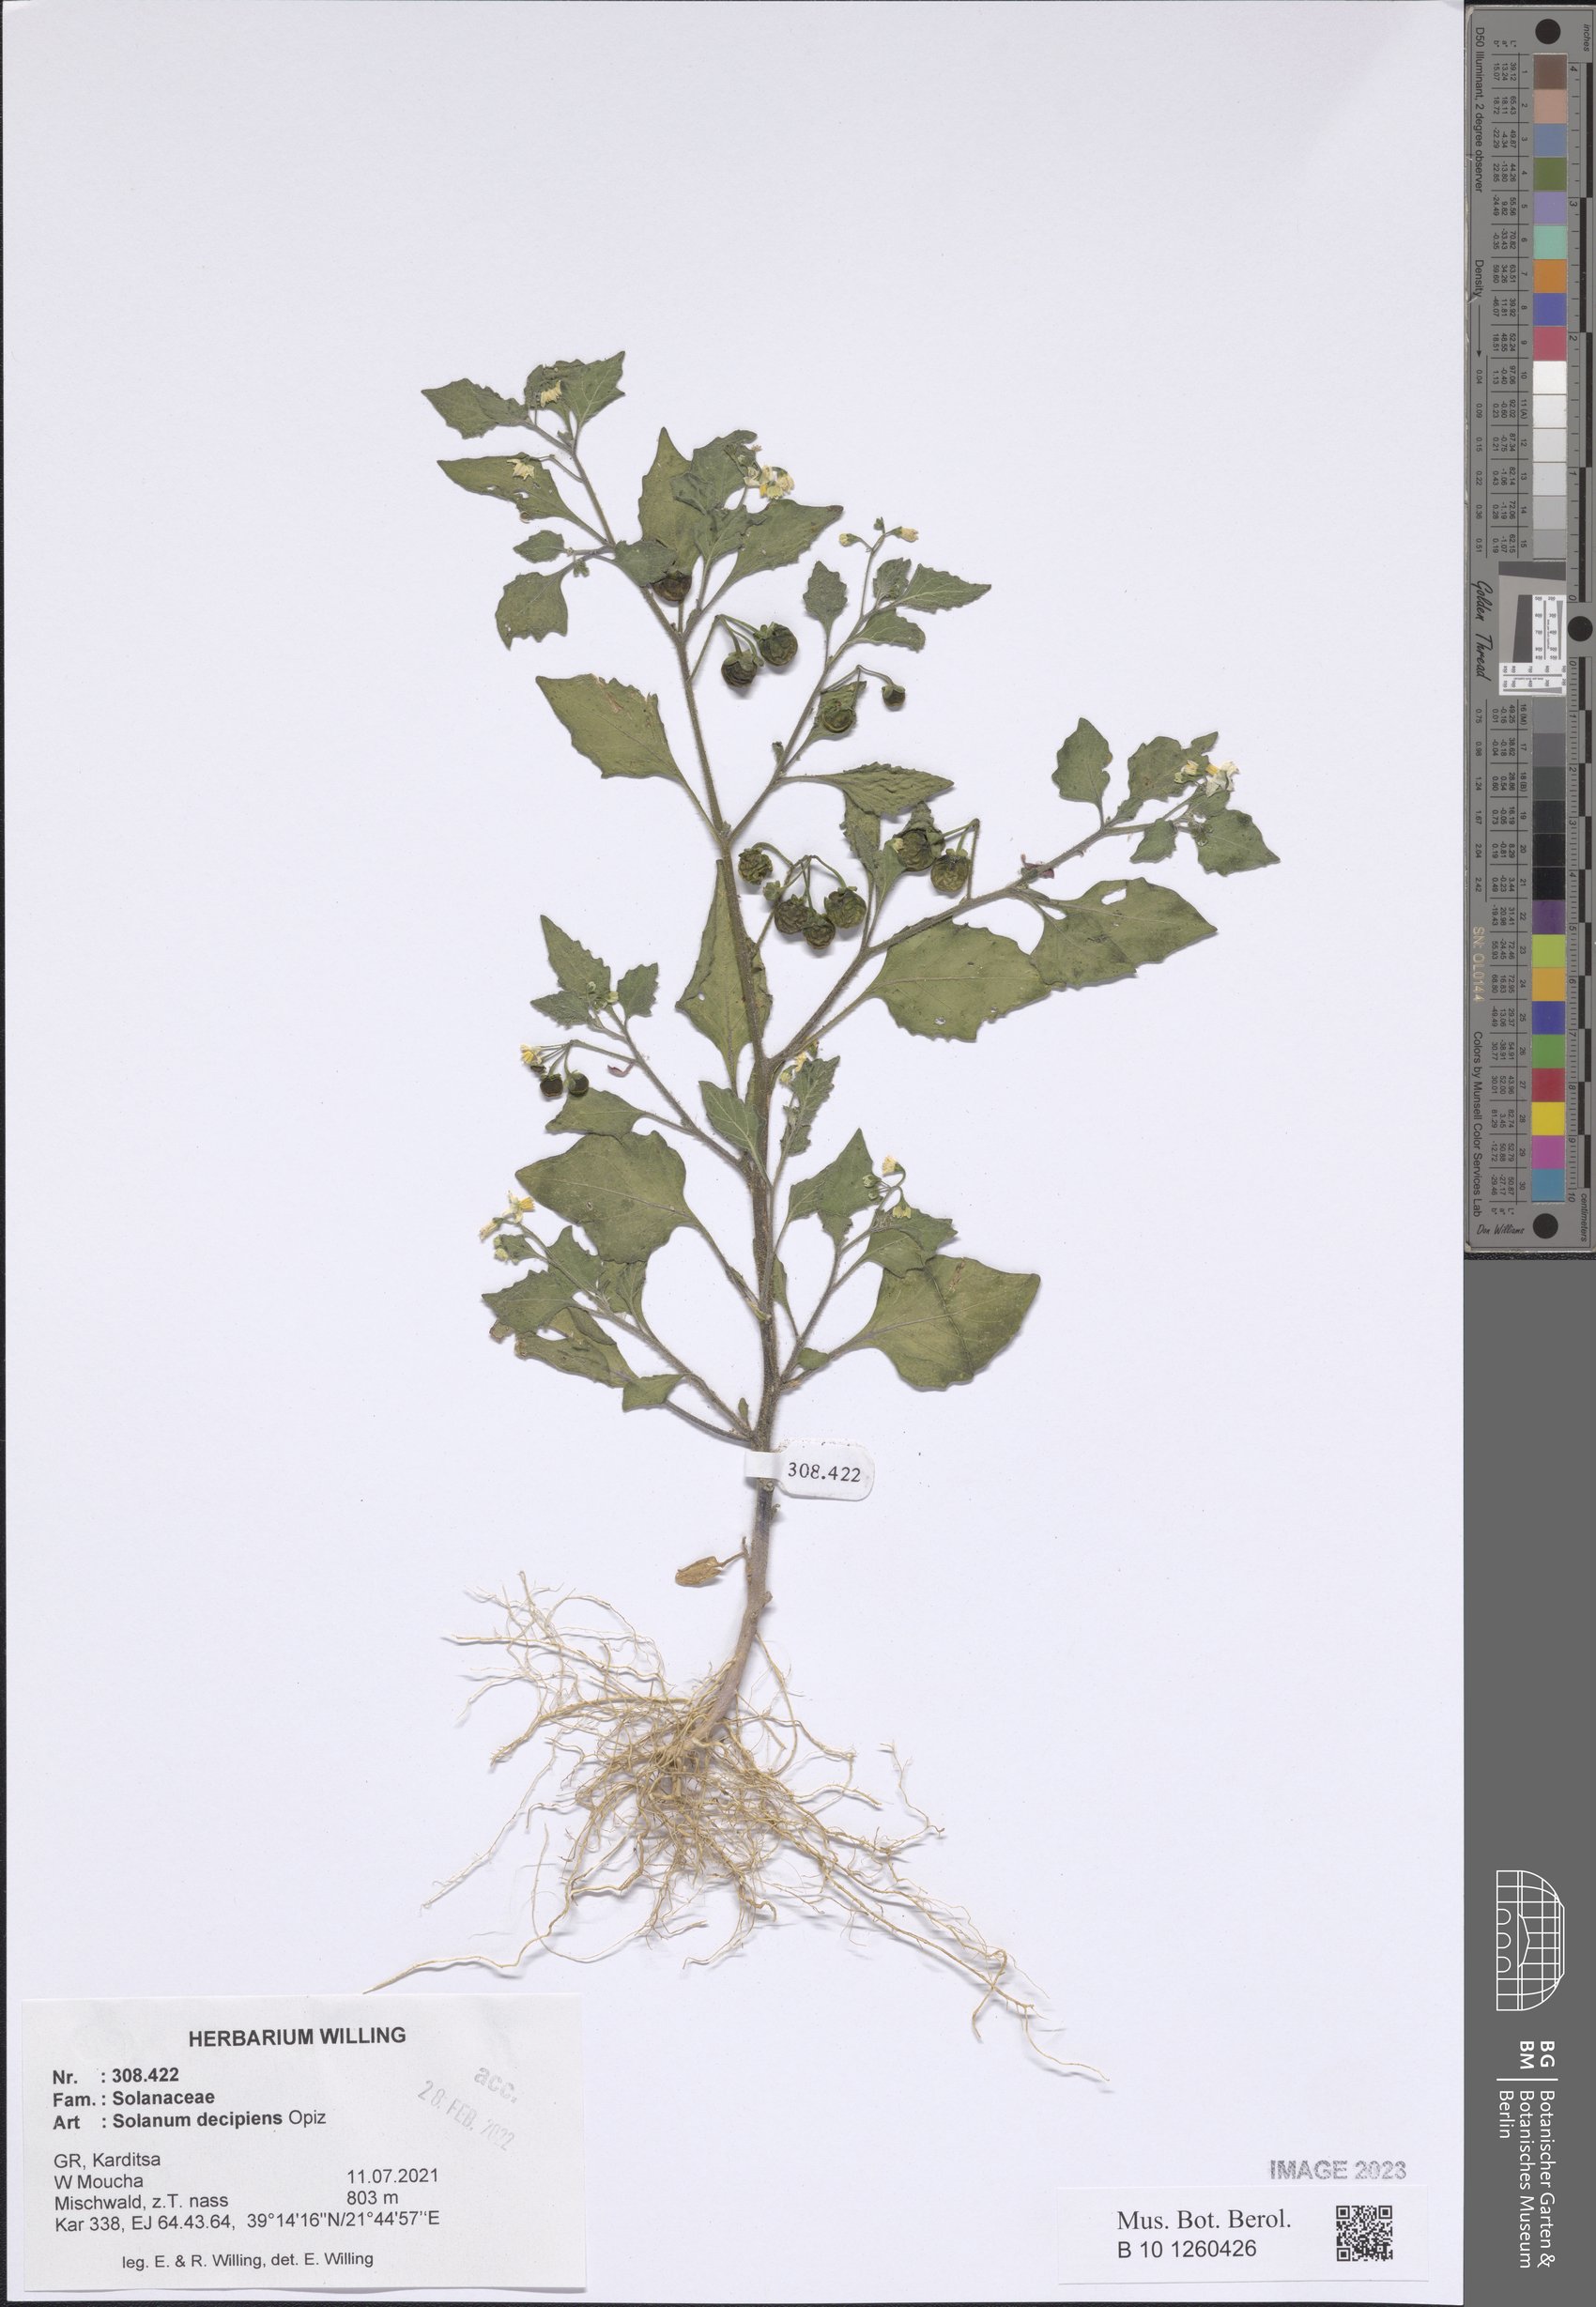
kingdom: Plantae
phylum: Tracheophyta
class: Magnoliopsida
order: Solanales
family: Solanaceae
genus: Solanum
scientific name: Solanum decipiens
